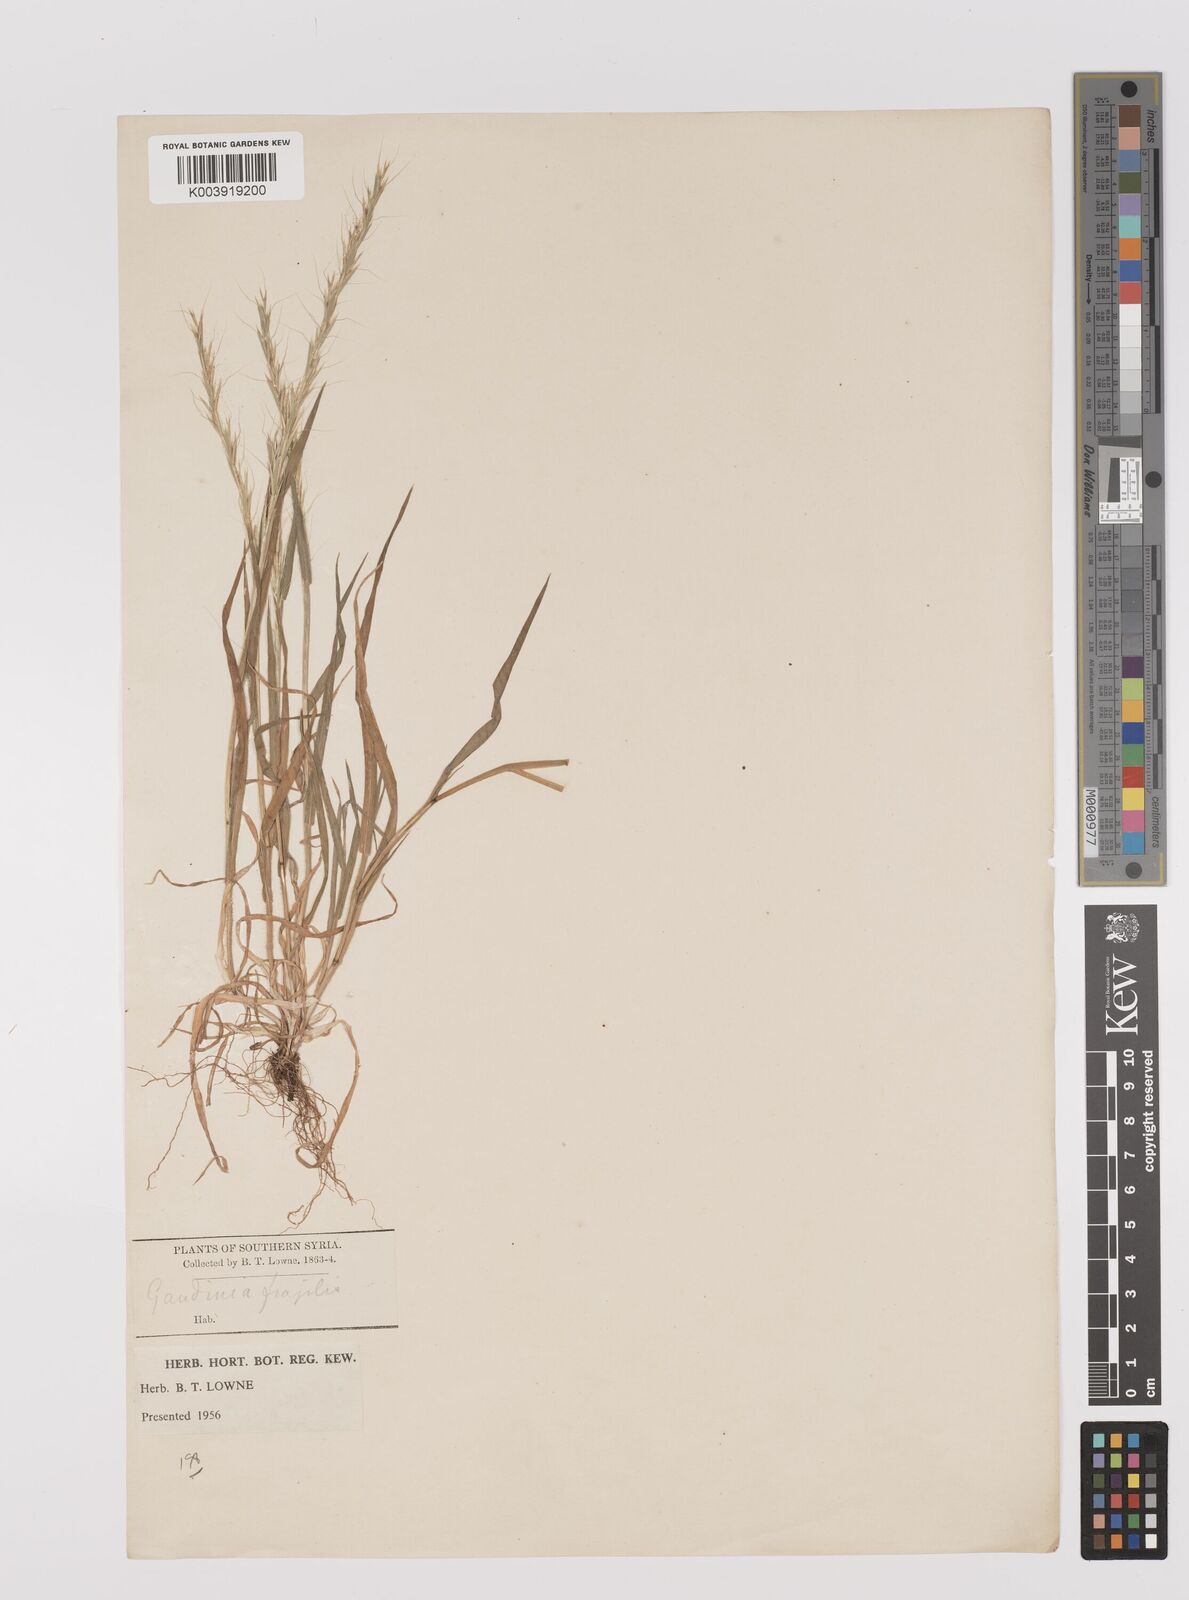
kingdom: Plantae
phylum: Tracheophyta
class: Liliopsida
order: Poales
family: Poaceae
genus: Gaudinia
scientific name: Gaudinia fragilis
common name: French oat-grass
